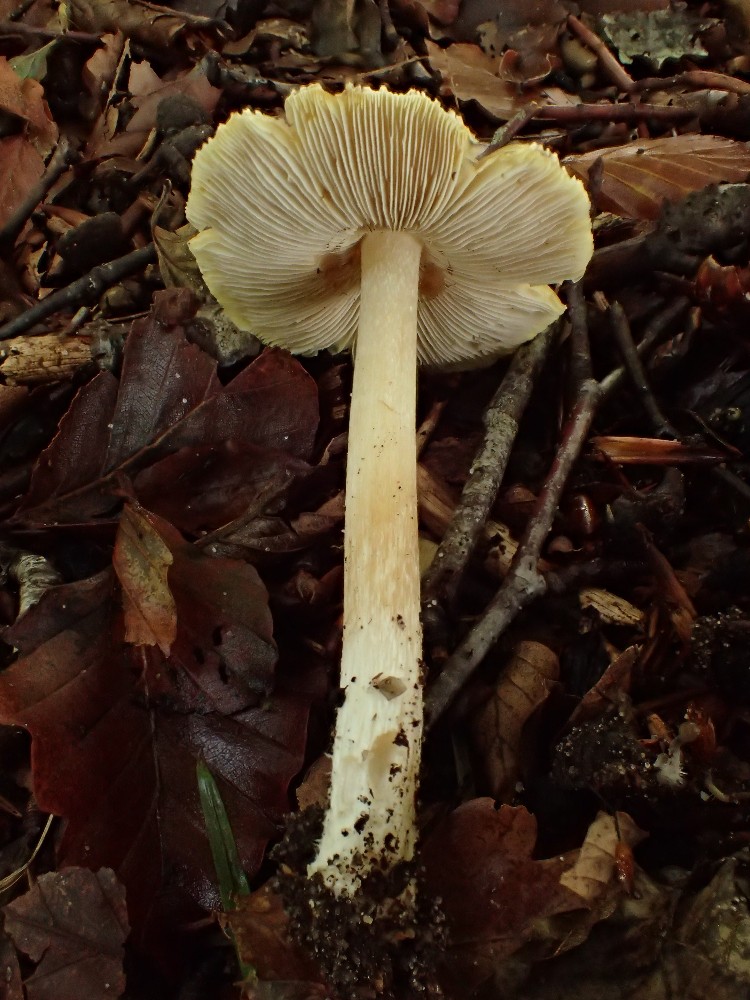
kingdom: Fungi
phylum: Basidiomycota
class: Agaricomycetes
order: Agaricales
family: Inocybaceae
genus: Pseudosperma
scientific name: Pseudosperma
